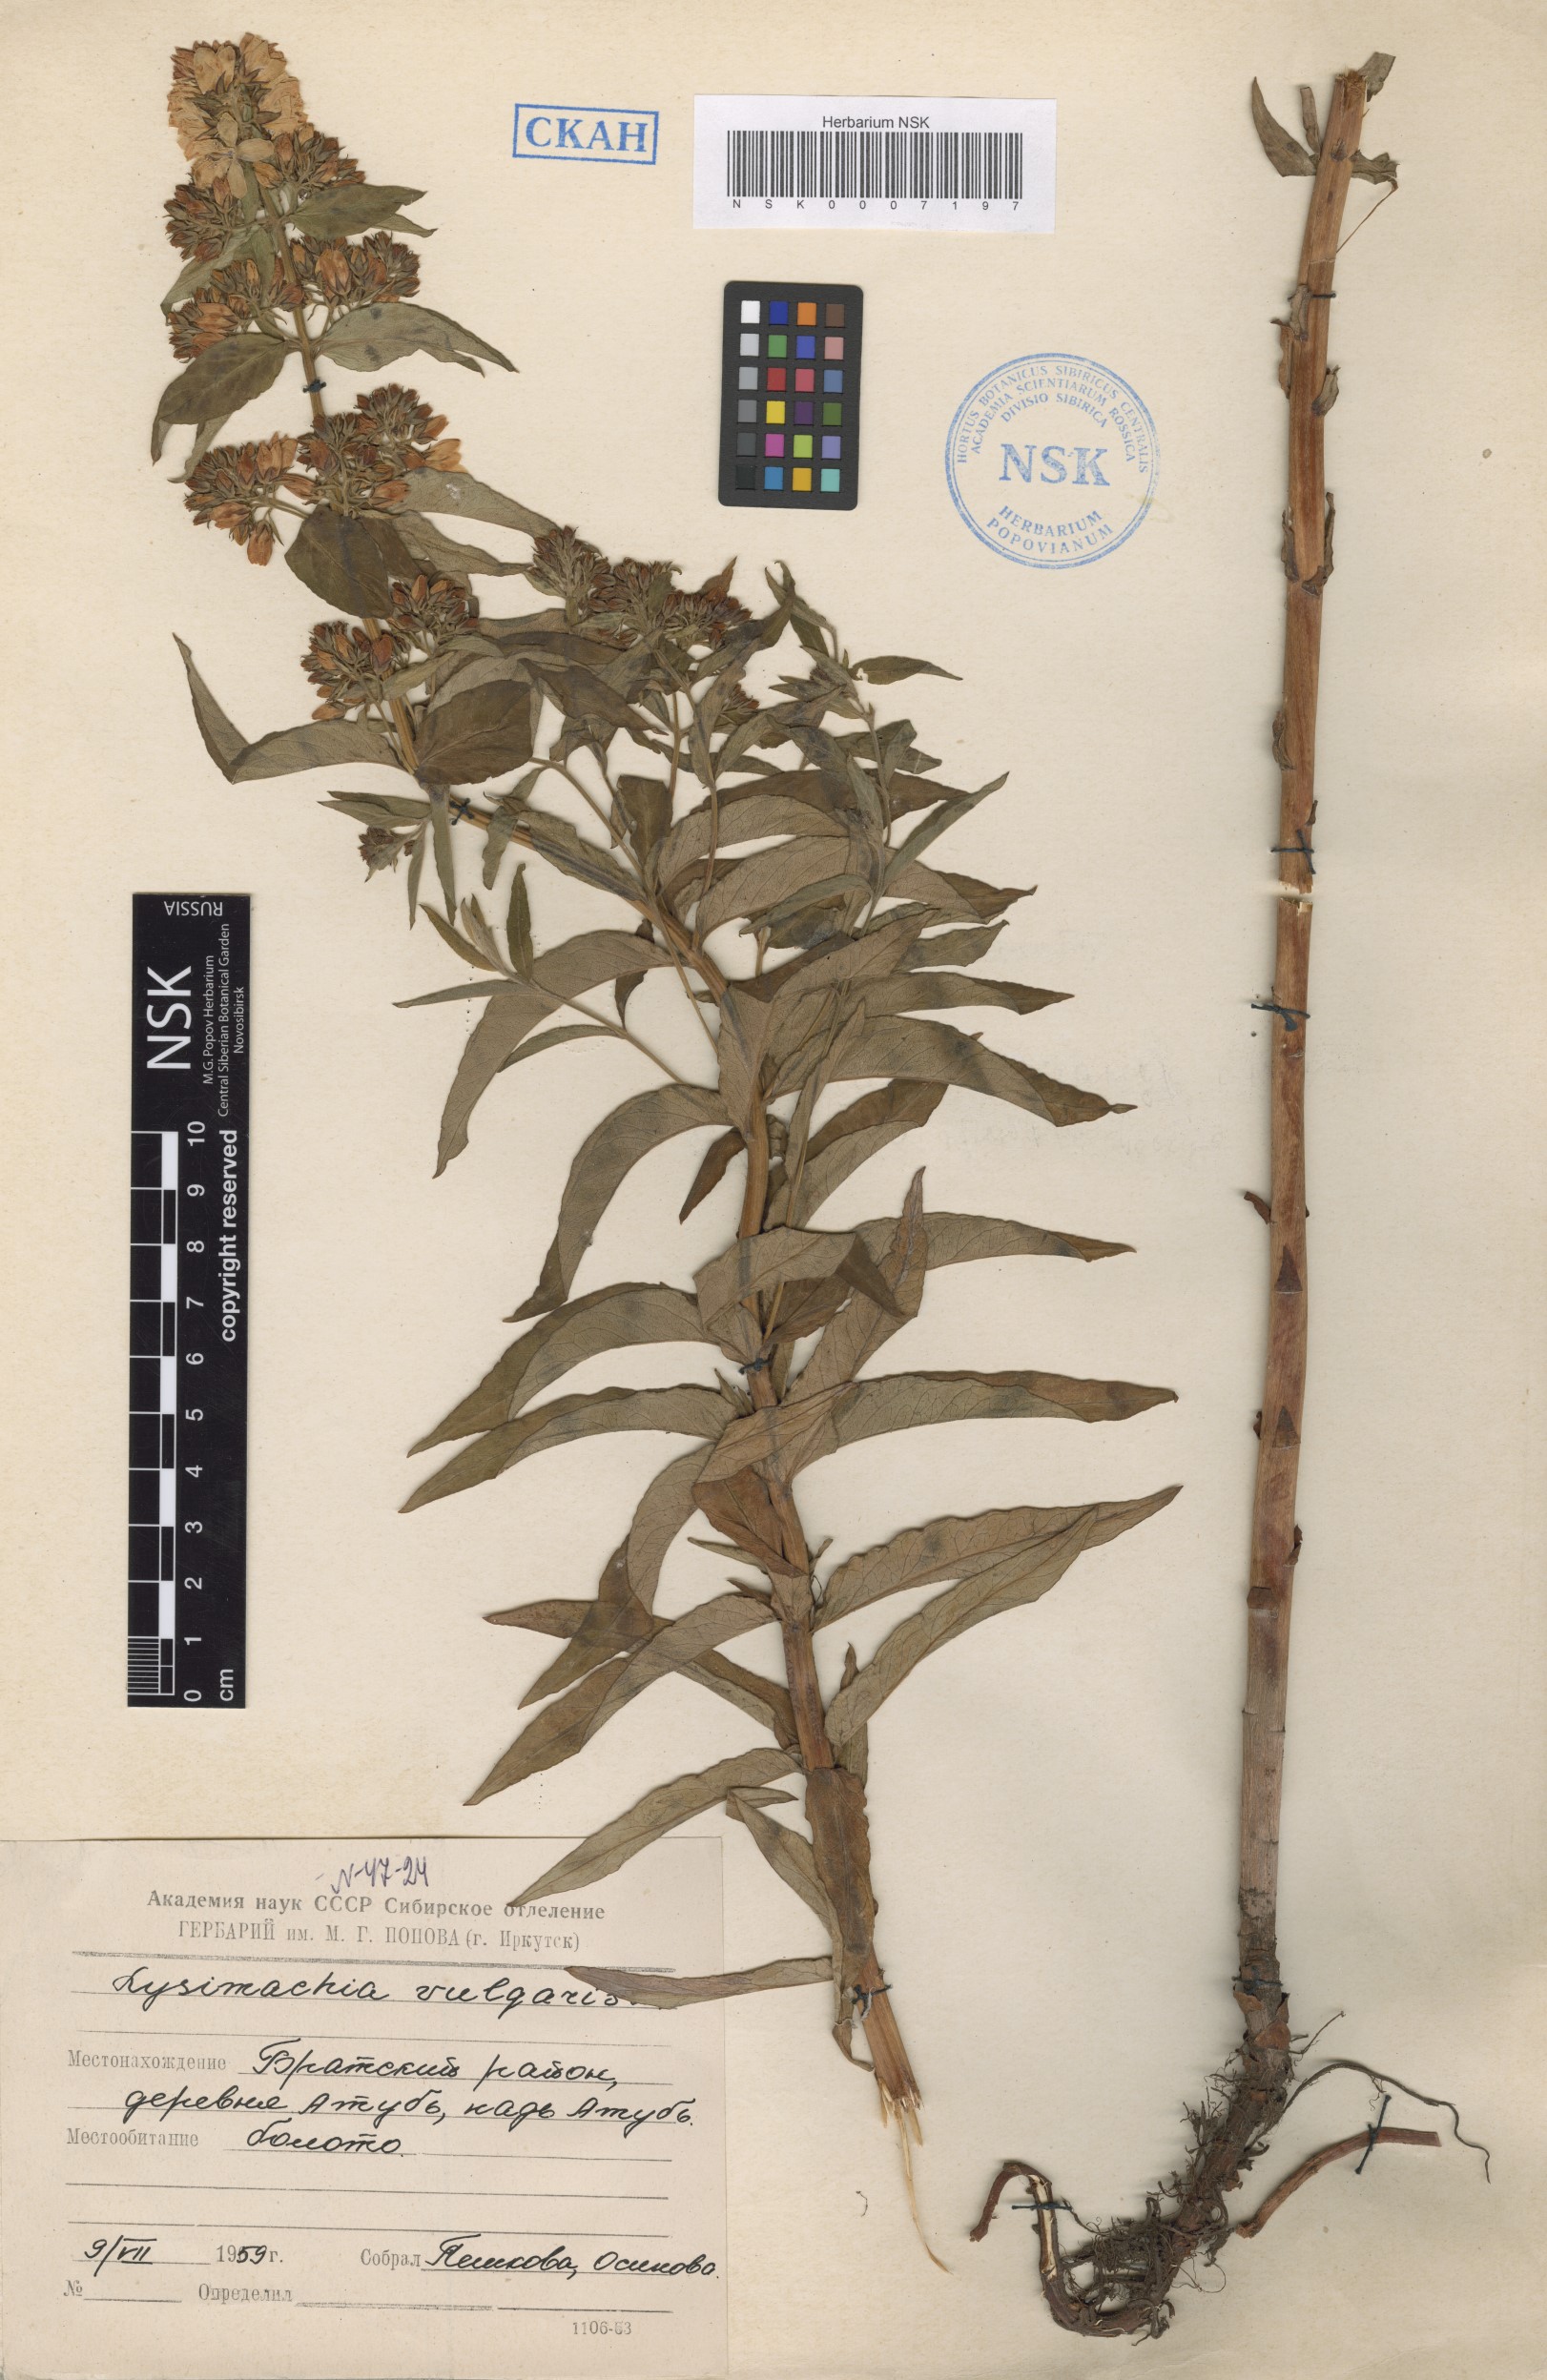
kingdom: Plantae
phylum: Tracheophyta
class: Magnoliopsida
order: Ericales
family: Primulaceae
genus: Lysimachia
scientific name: Lysimachia vulgaris
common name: Yellow loosestrife
